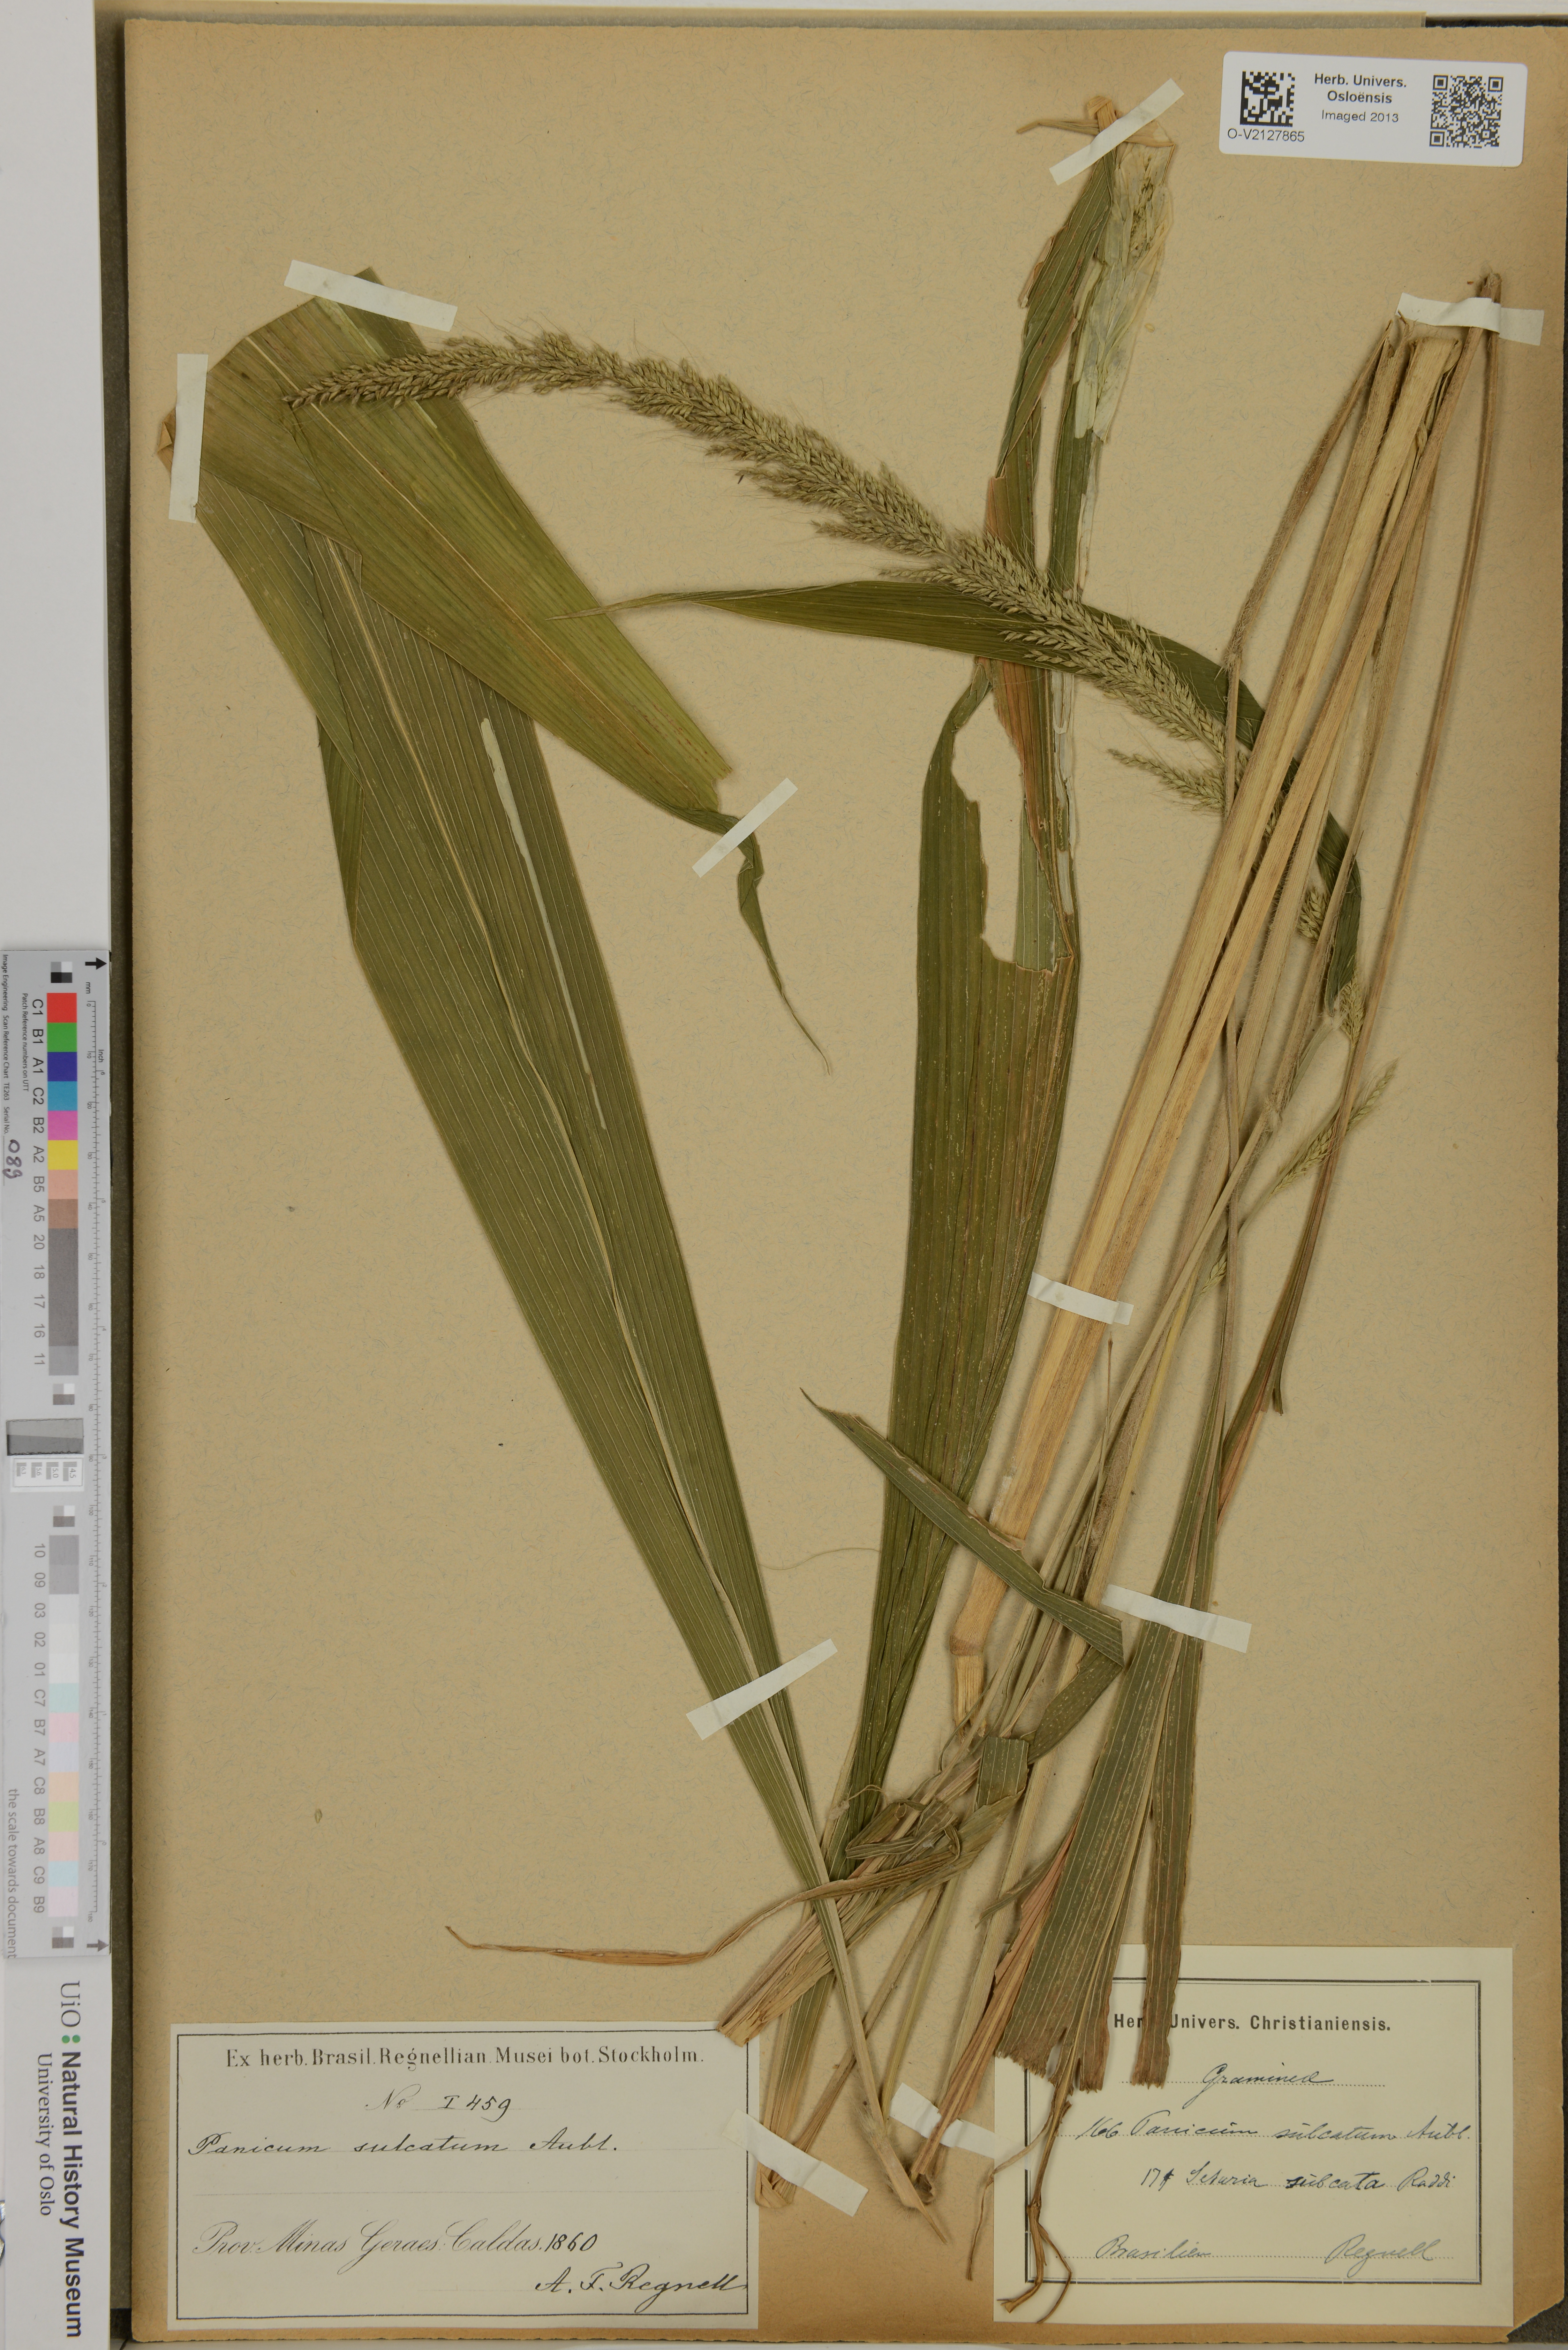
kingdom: Plantae
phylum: Tracheophyta
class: Liliopsida
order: Poales
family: Poaceae
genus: Setaria
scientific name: Setaria
